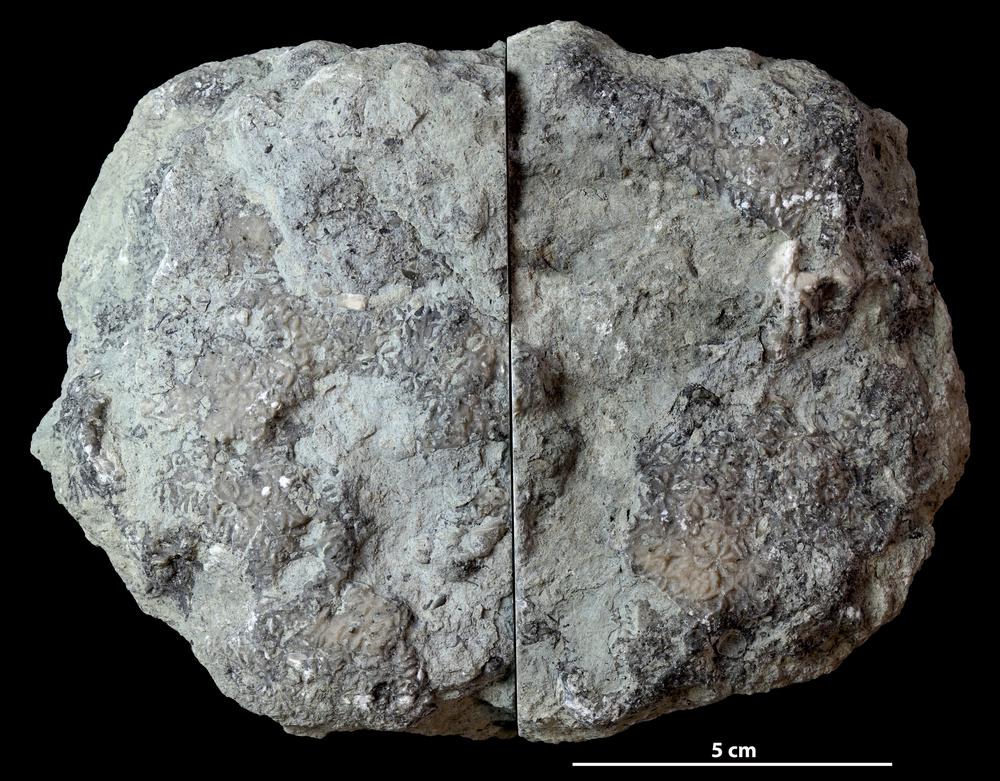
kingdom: Animalia
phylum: Bryozoa
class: Stenolaemata
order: Trepostomatida
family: Diplotrypidae
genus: Diplotrypa
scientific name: Diplotrypa
